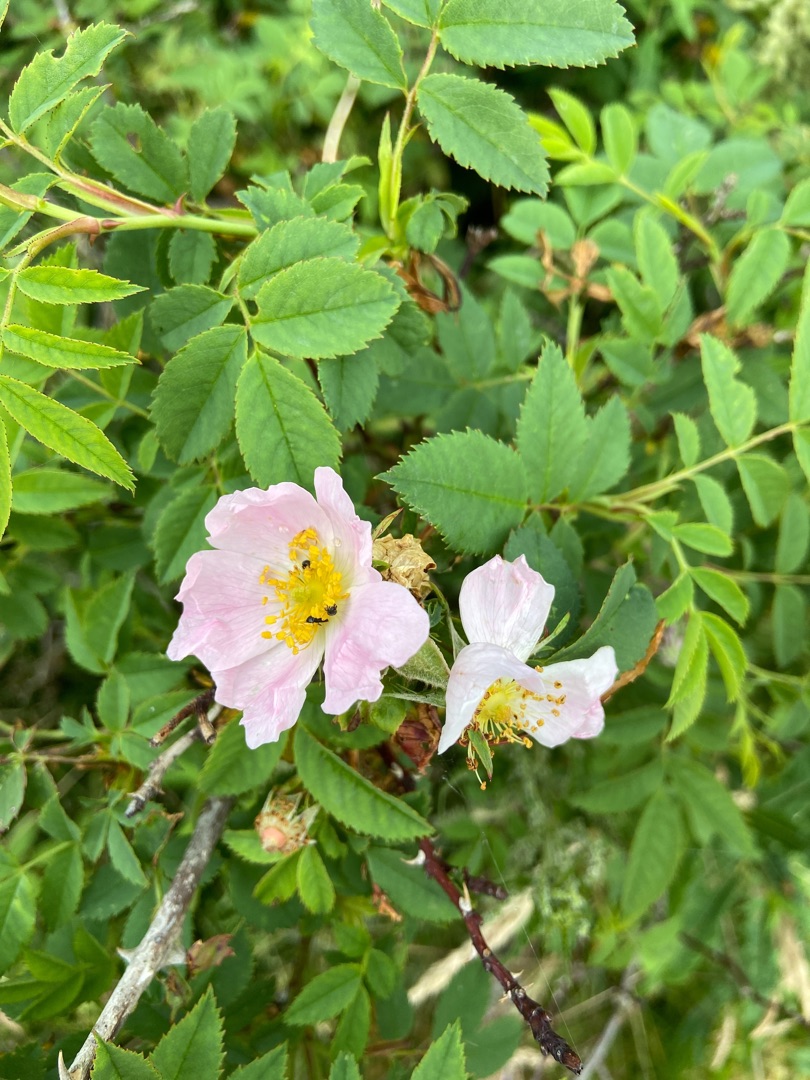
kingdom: Plantae
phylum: Tracheophyta
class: Magnoliopsida
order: Rosales
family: Rosaceae
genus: Rosa
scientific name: Rosa canina
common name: Glat hunde-rose
